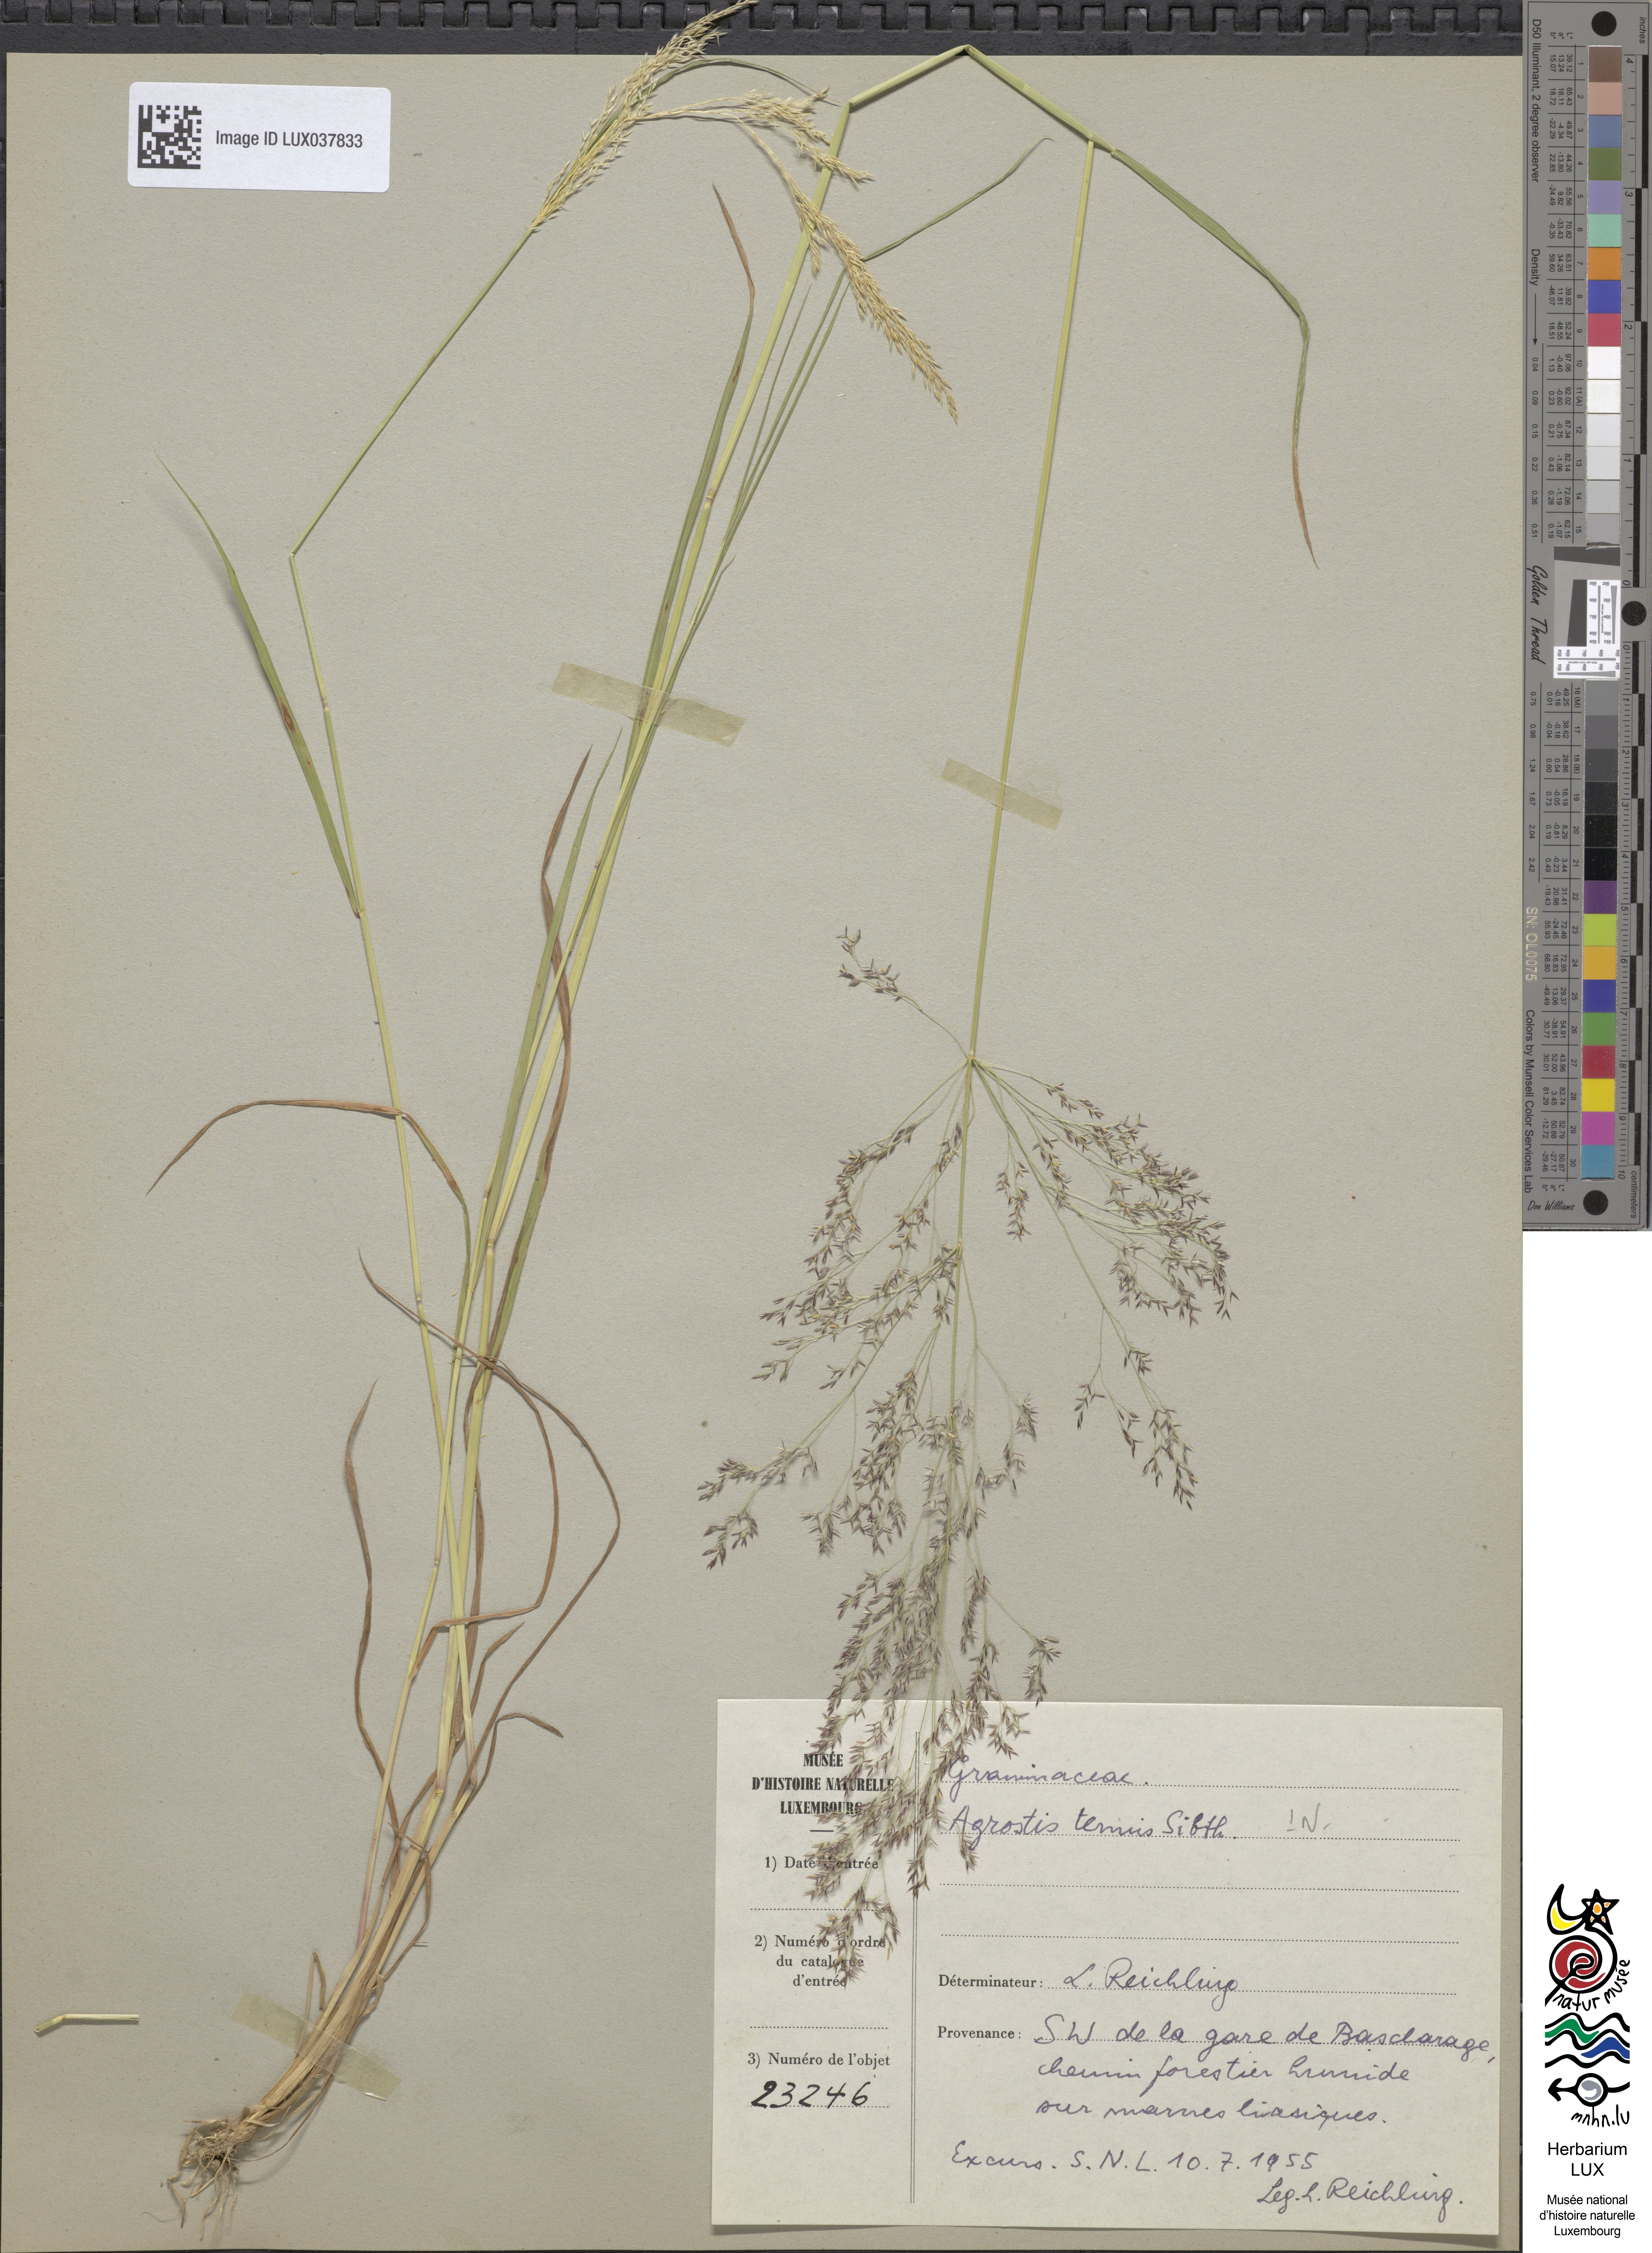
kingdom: Plantae
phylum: Tracheophyta
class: Liliopsida
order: Poales
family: Poaceae
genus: Agrostis
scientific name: Agrostis capillaris
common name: Colonial bentgrass
